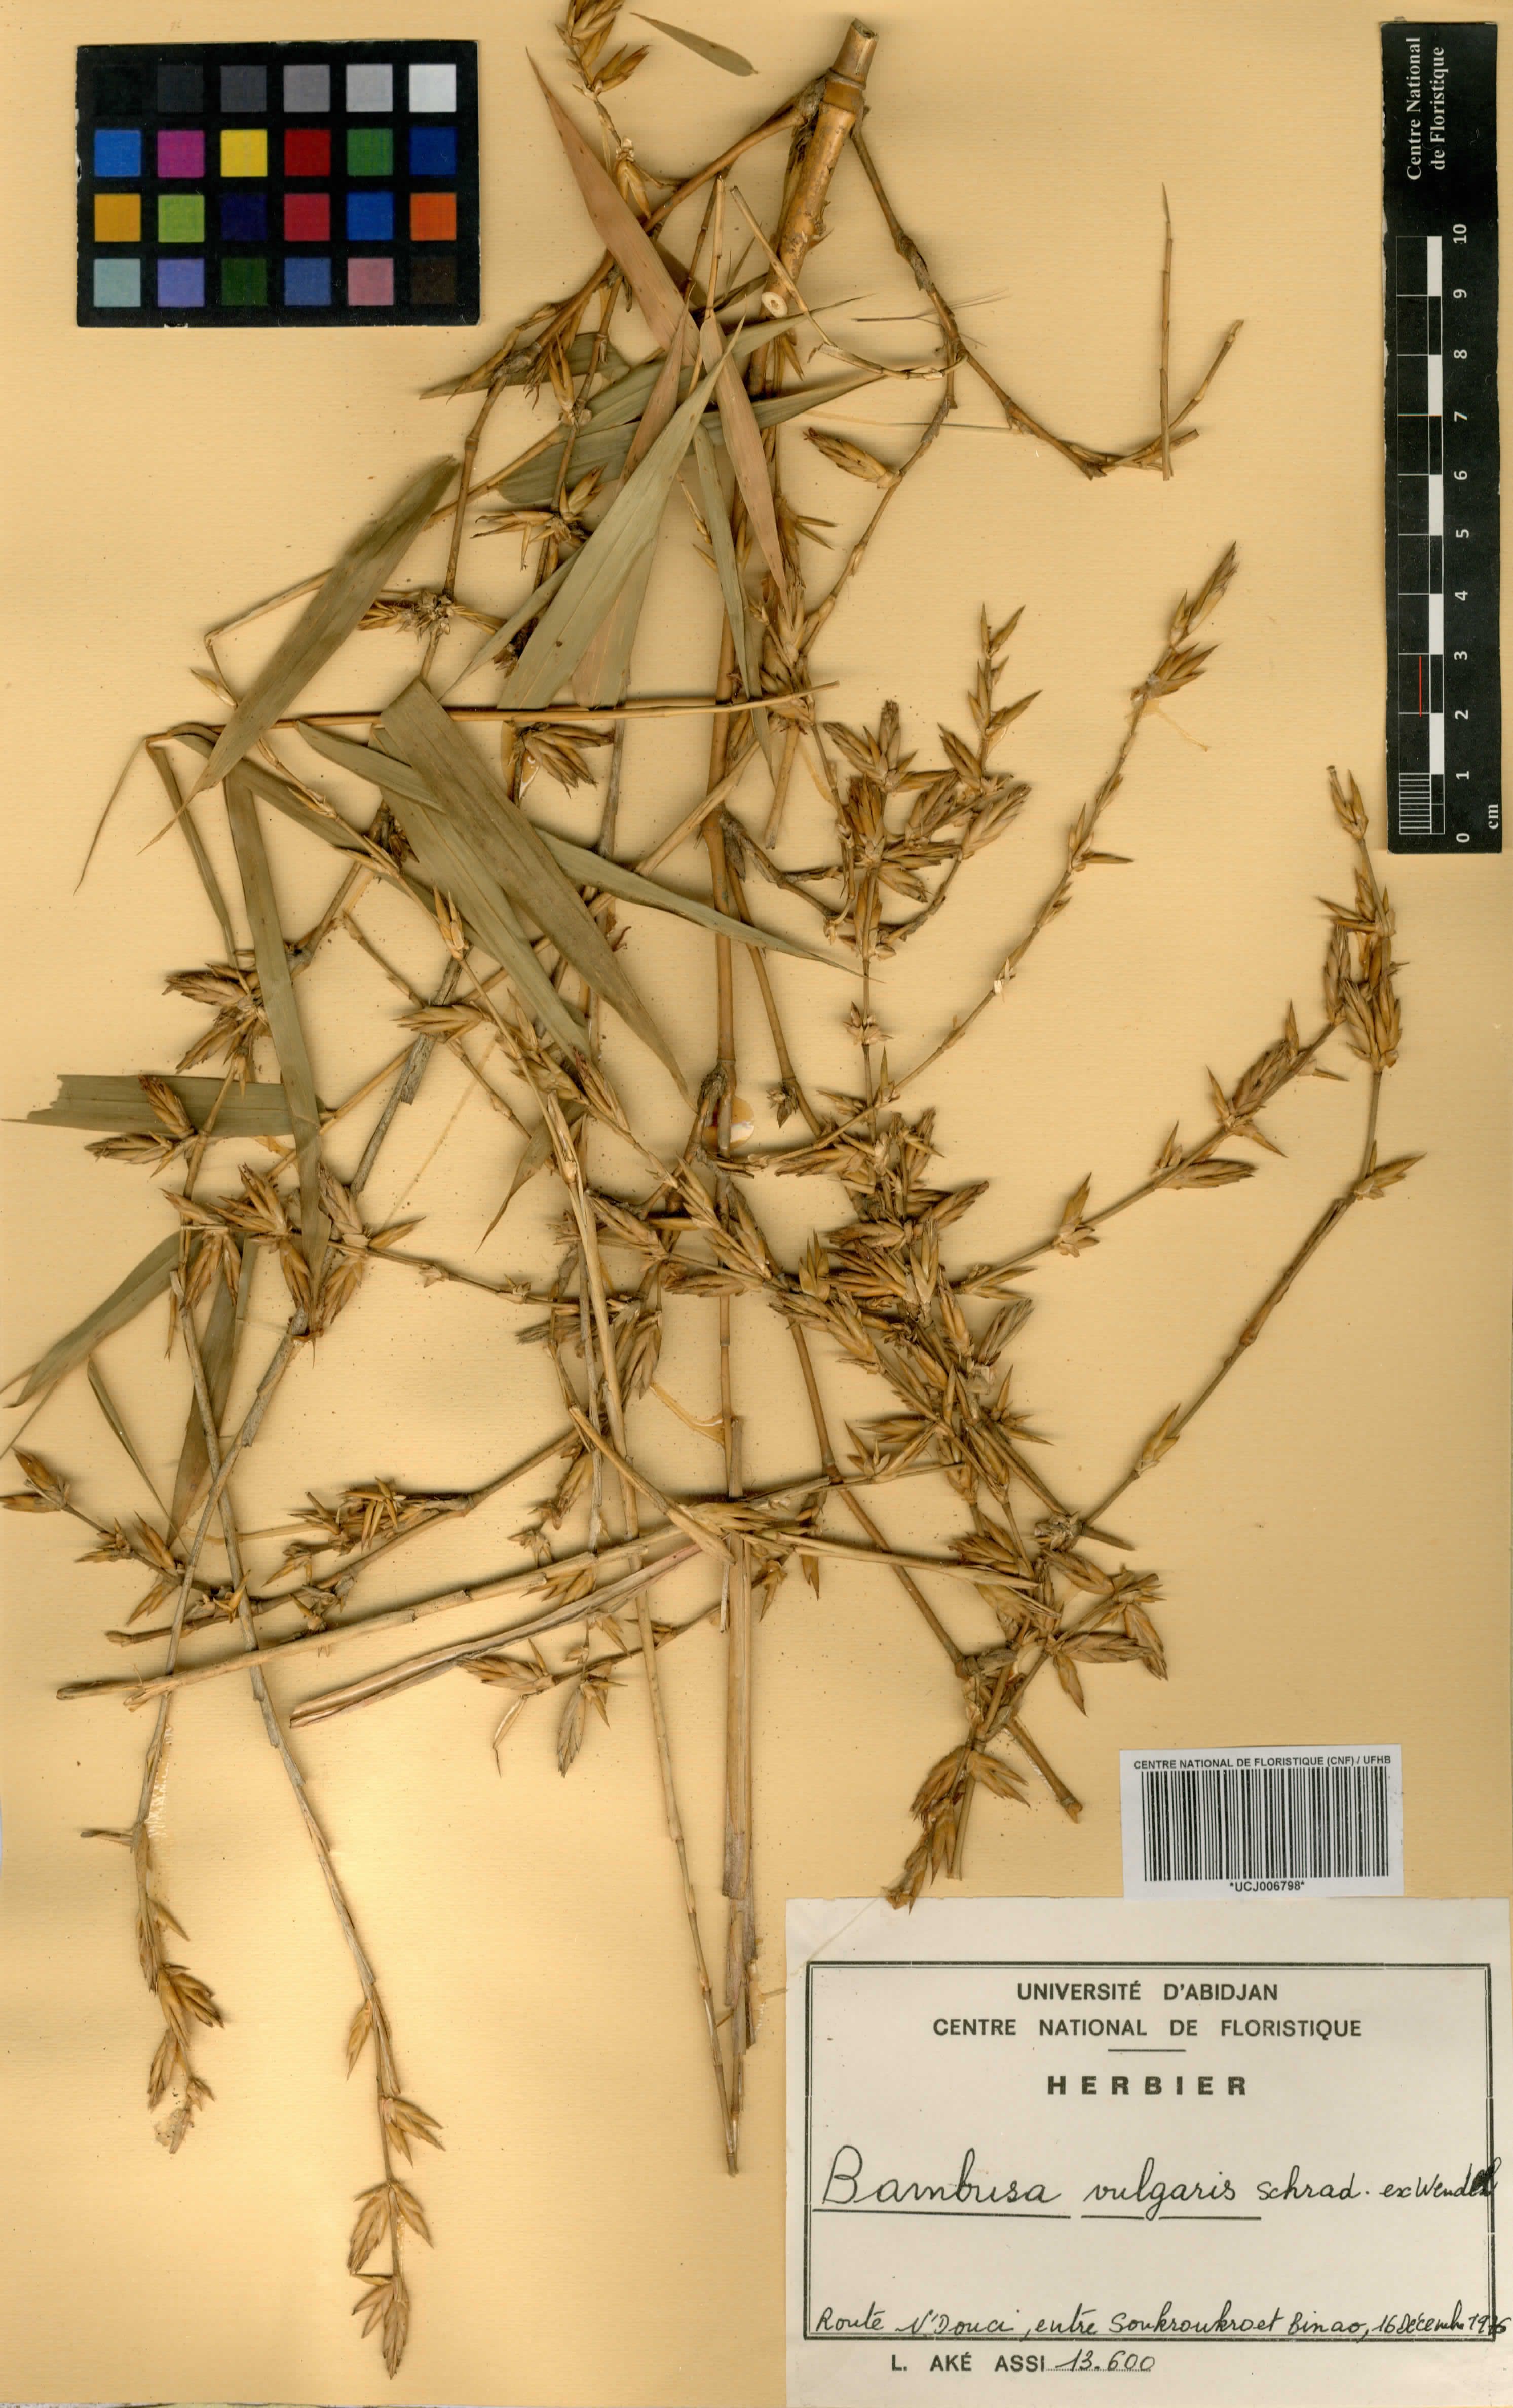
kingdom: Plantae
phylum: Tracheophyta
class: Liliopsida
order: Poales
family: Poaceae
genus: Bambusa
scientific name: Bambusa vulgaris
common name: Common bamboo
